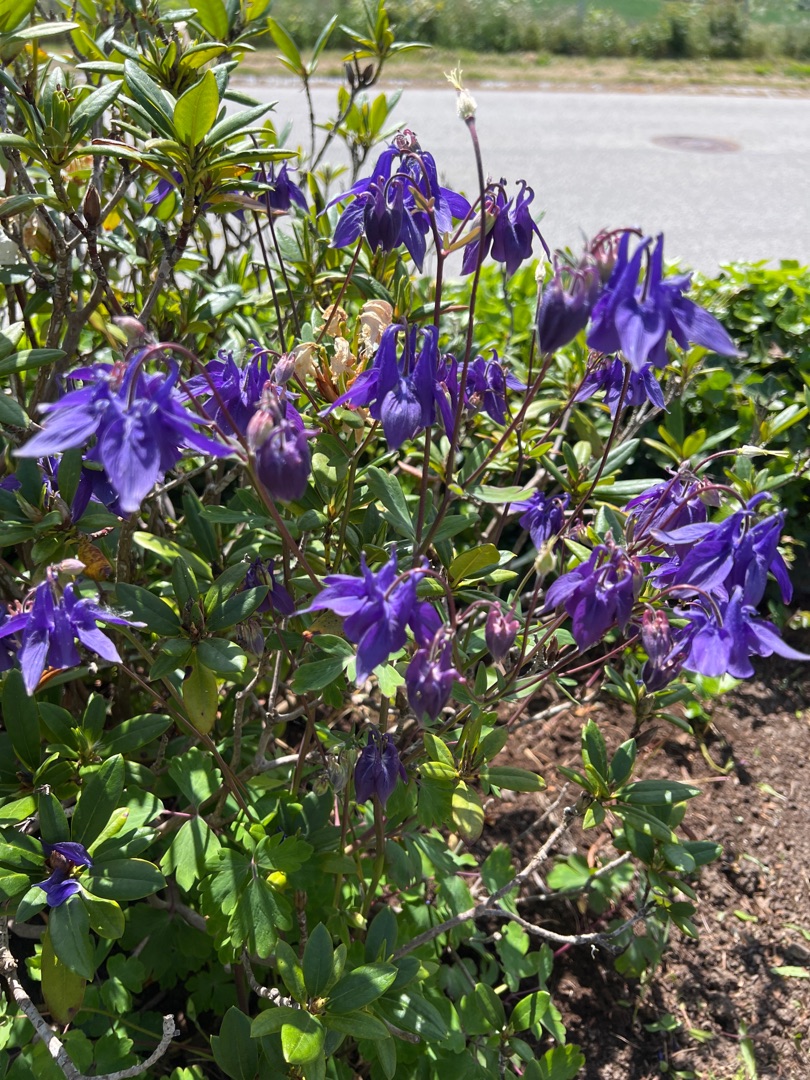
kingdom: Plantae
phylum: Tracheophyta
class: Magnoliopsida
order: Ranunculales
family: Ranunculaceae
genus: Aquilegia
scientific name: Aquilegia vulgaris
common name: Akeleje
